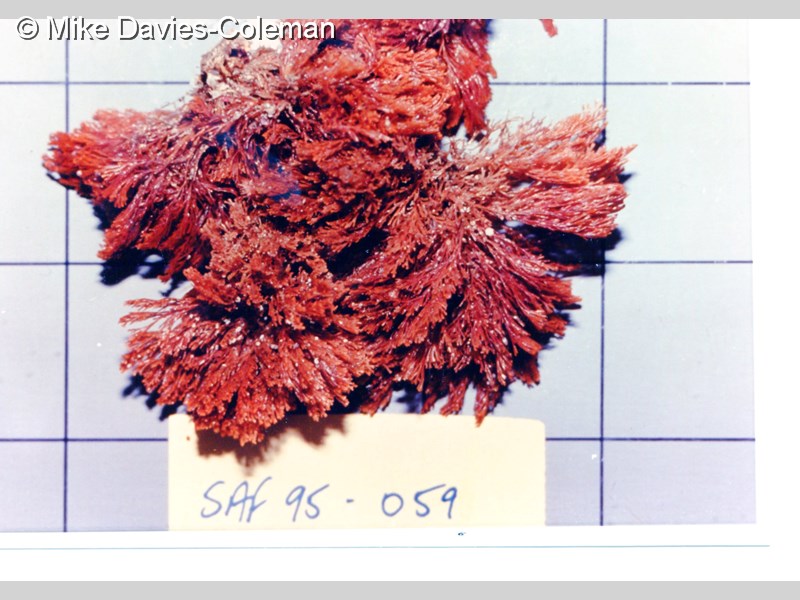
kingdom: Animalia
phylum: Bryozoa
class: Gymnolaemata
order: Cheilostomatida
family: Candidae
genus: Menipea
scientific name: Menipea crispa
